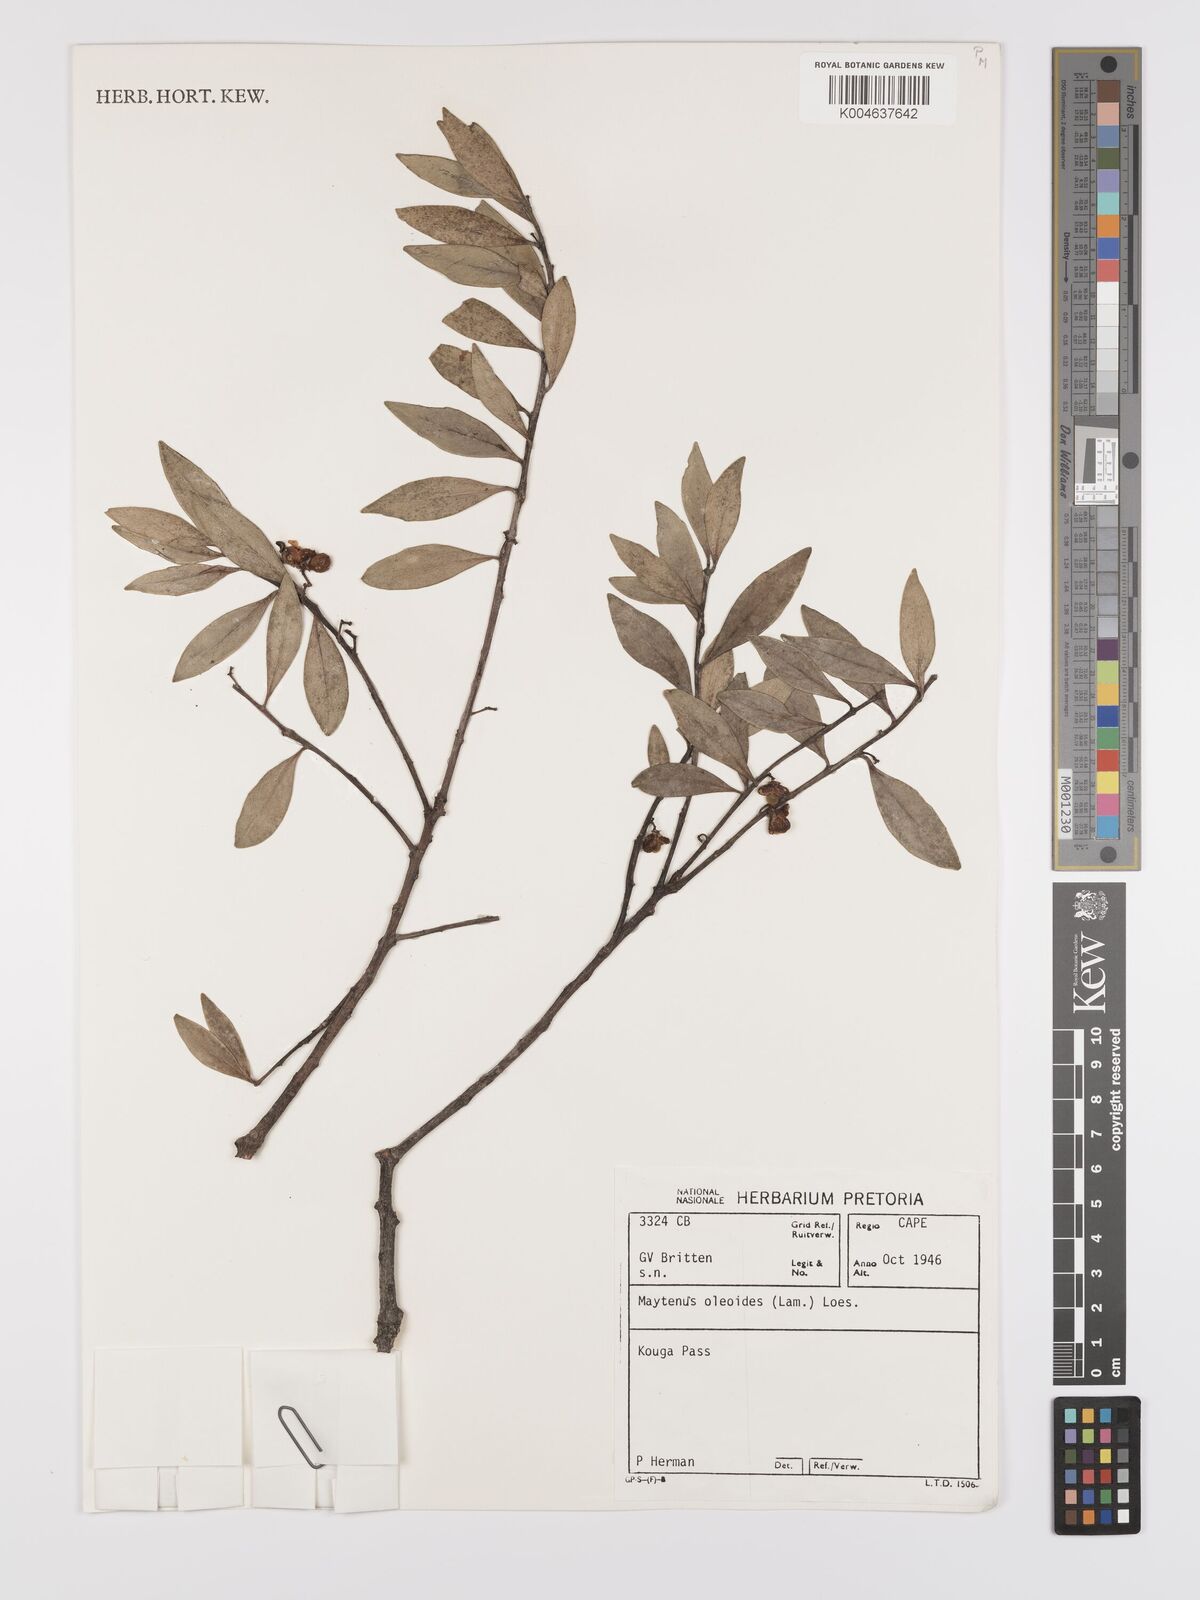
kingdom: Plantae
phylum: Tracheophyta
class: Magnoliopsida
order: Celastrales
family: Celastraceae
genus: Gymnosporia
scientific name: Gymnosporia laurina
